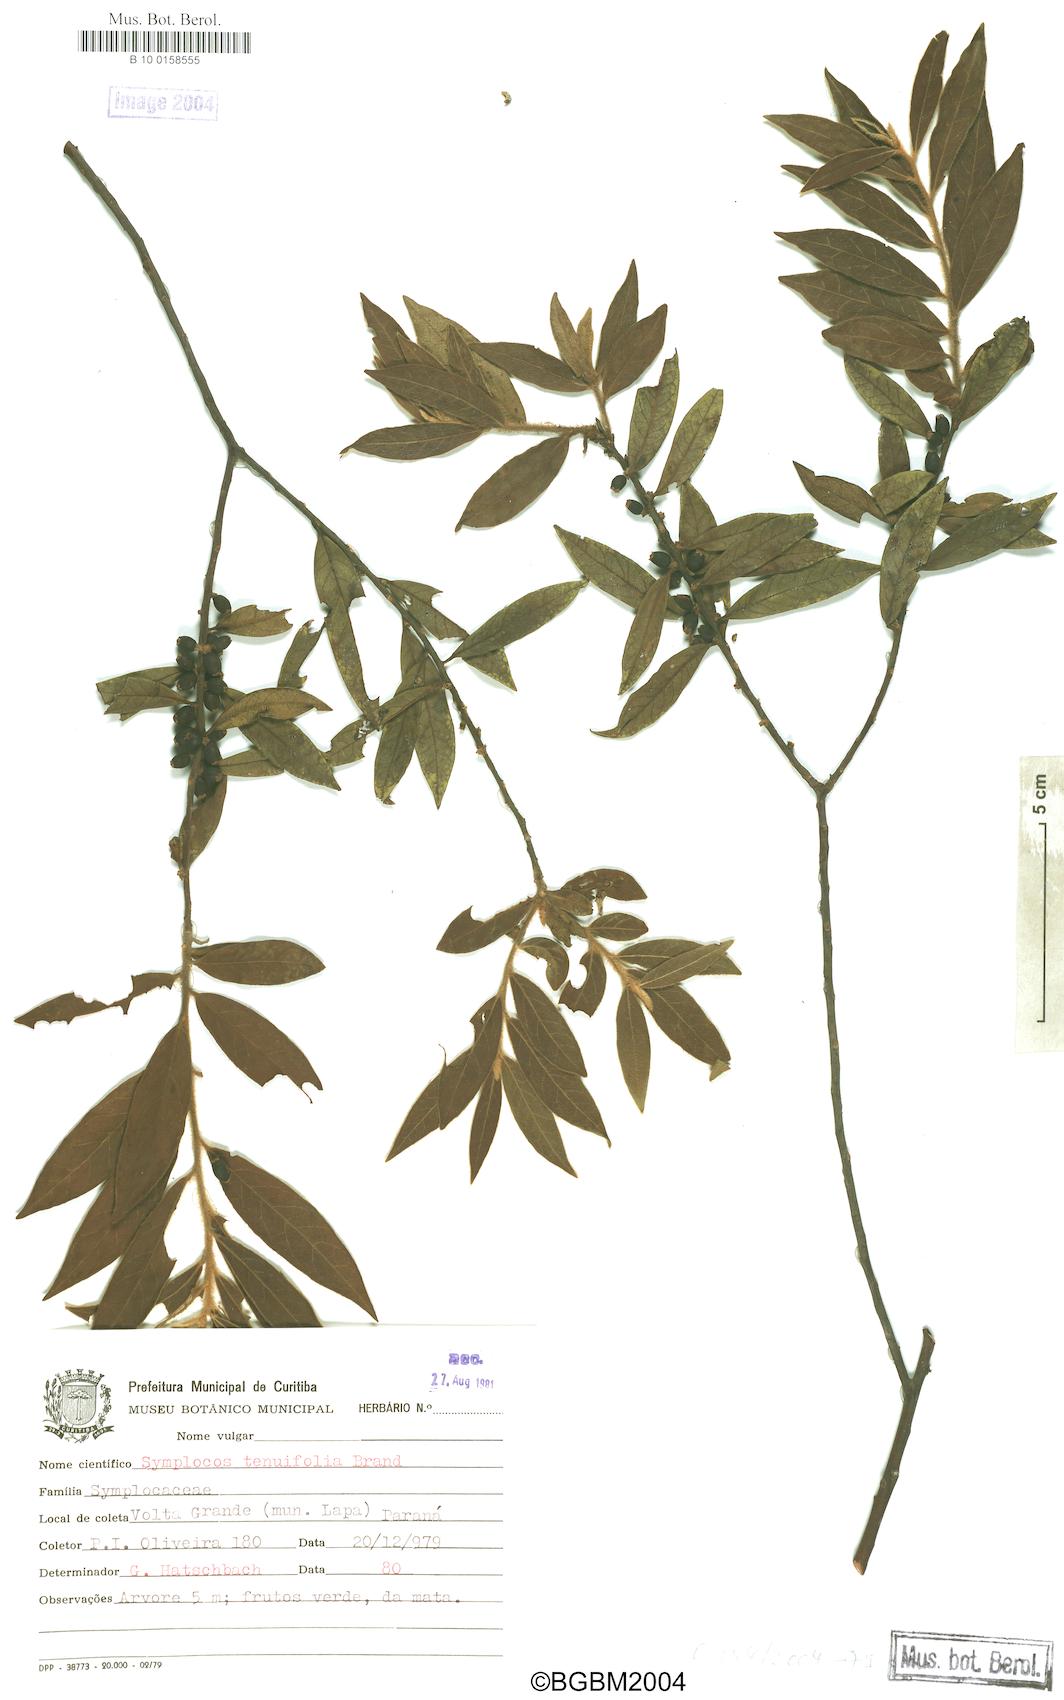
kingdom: Plantae
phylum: Tracheophyta
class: Magnoliopsida
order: Ericales
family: Symplocaceae
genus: Symplocos
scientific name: Symplocos tenuifolia
